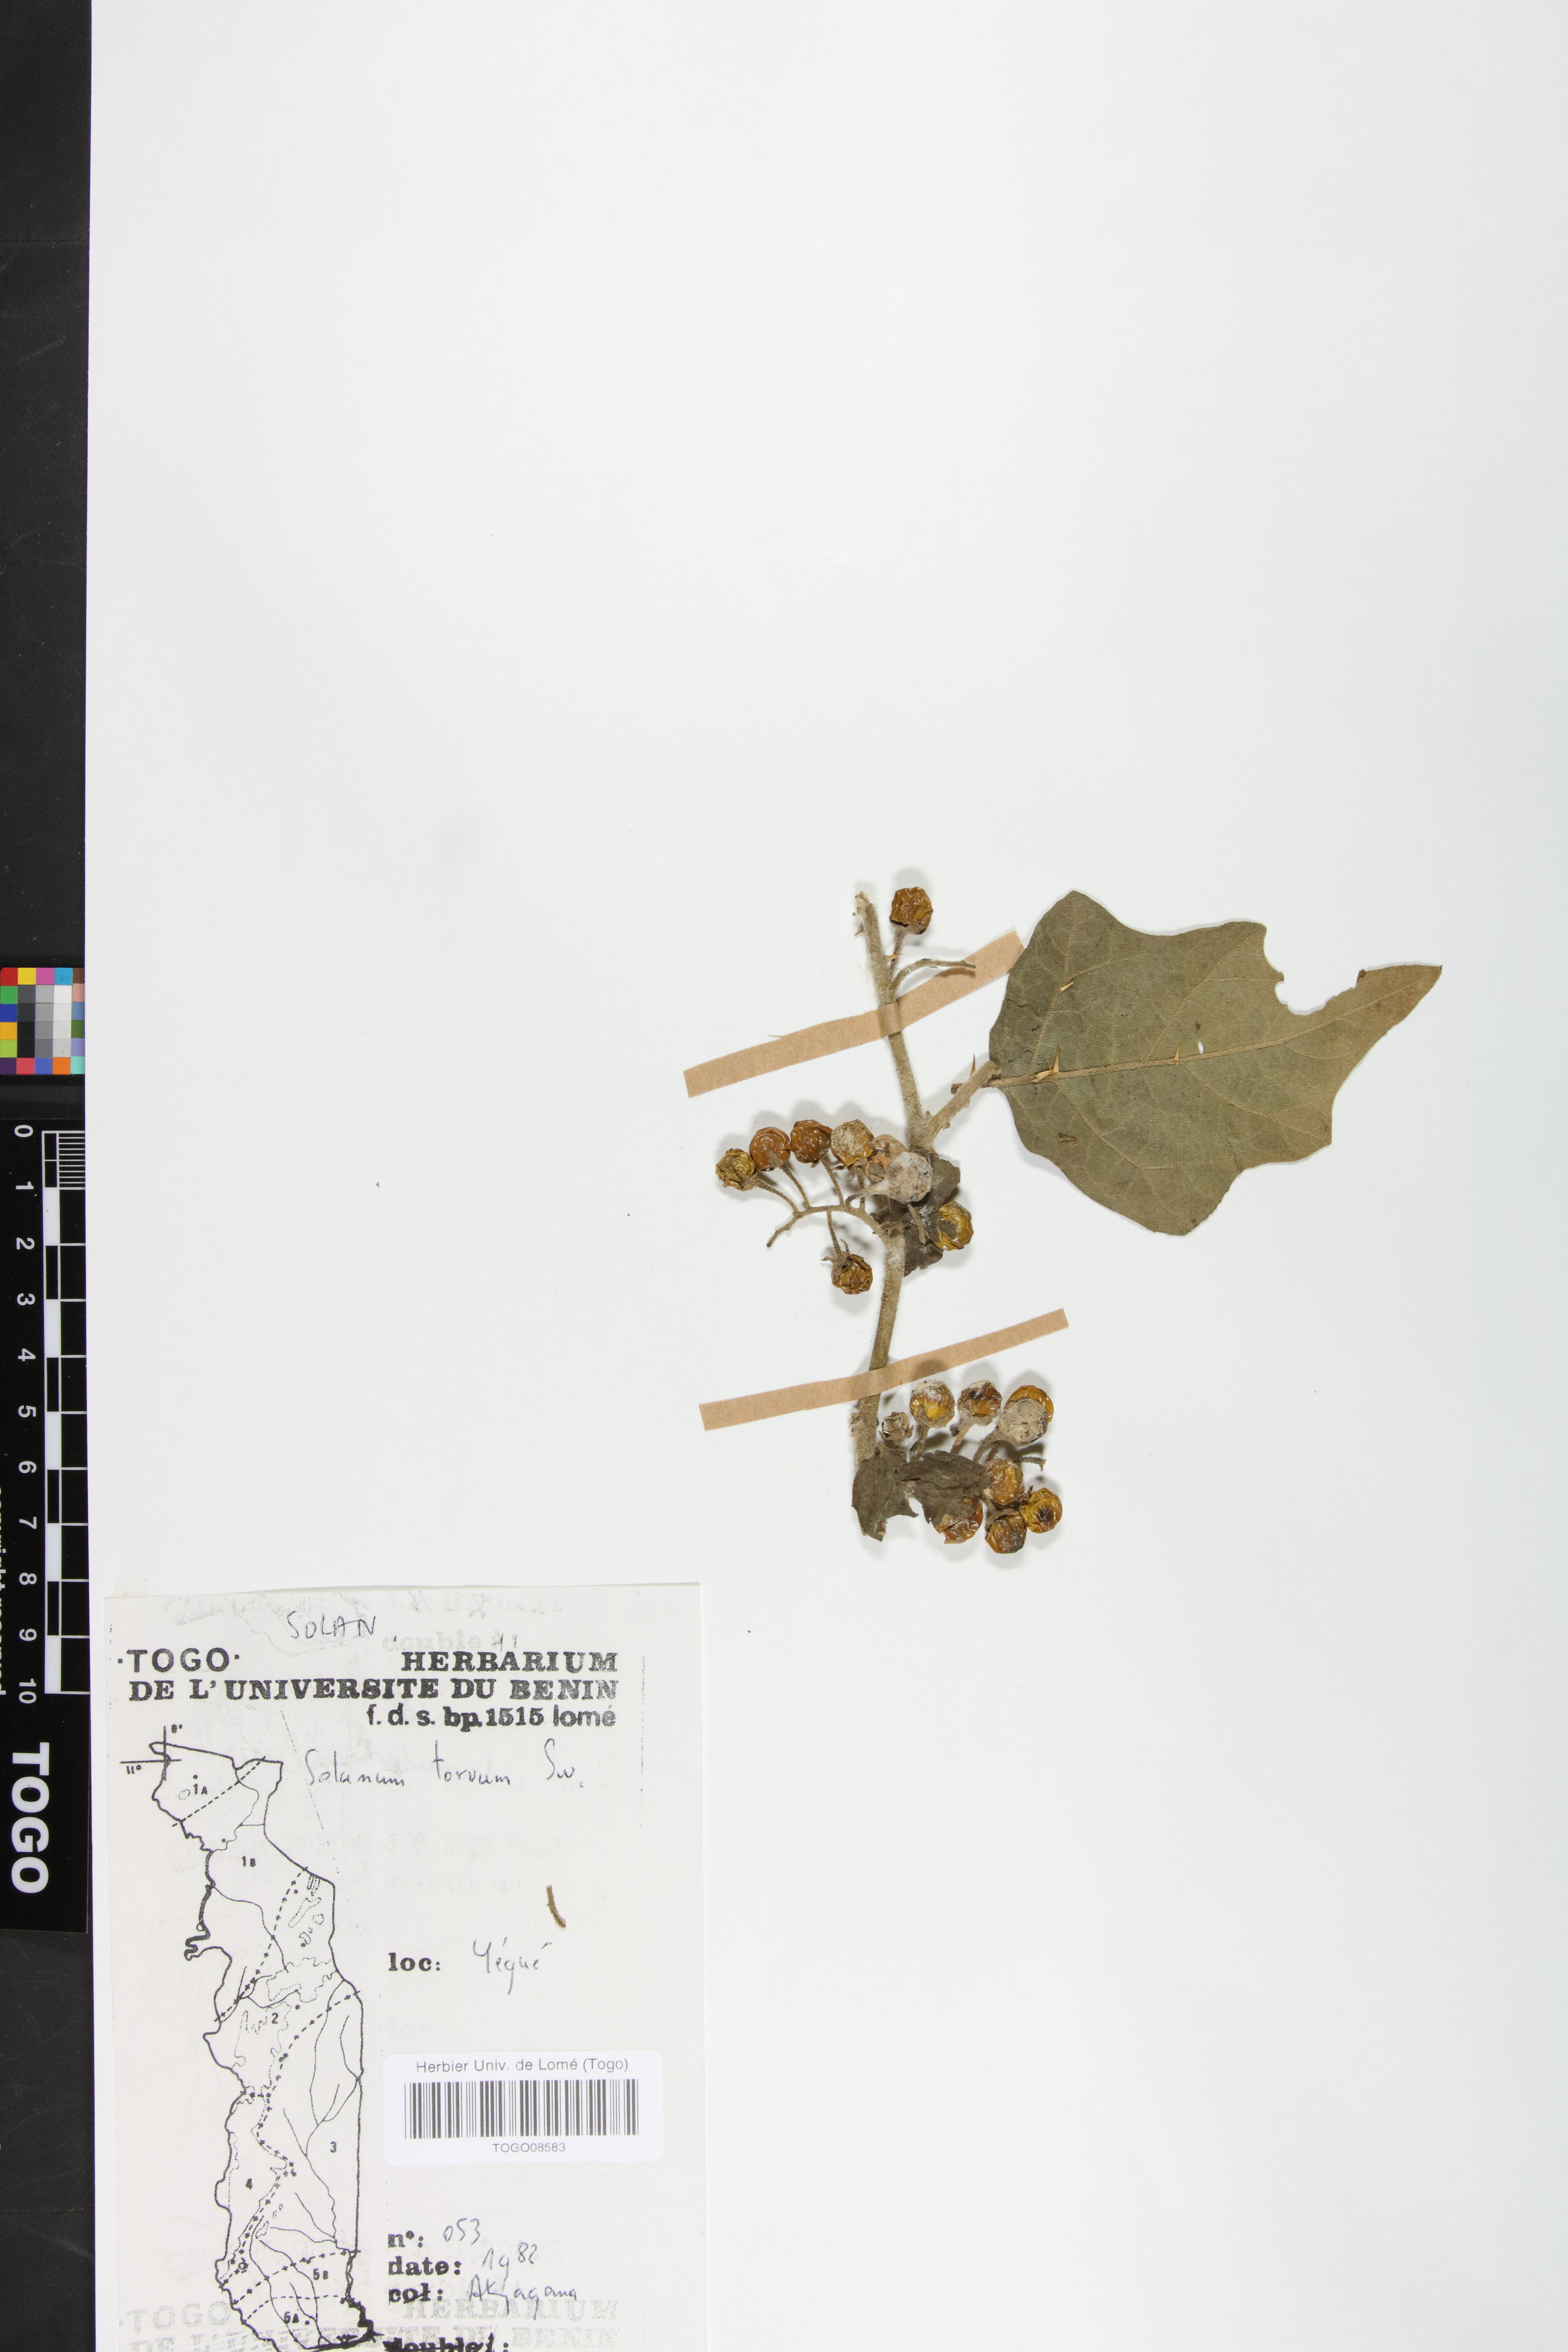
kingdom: Plantae
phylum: Tracheophyta
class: Magnoliopsida
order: Solanales
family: Solanaceae
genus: Solanum
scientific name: Solanum torvum
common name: Turkey berry
